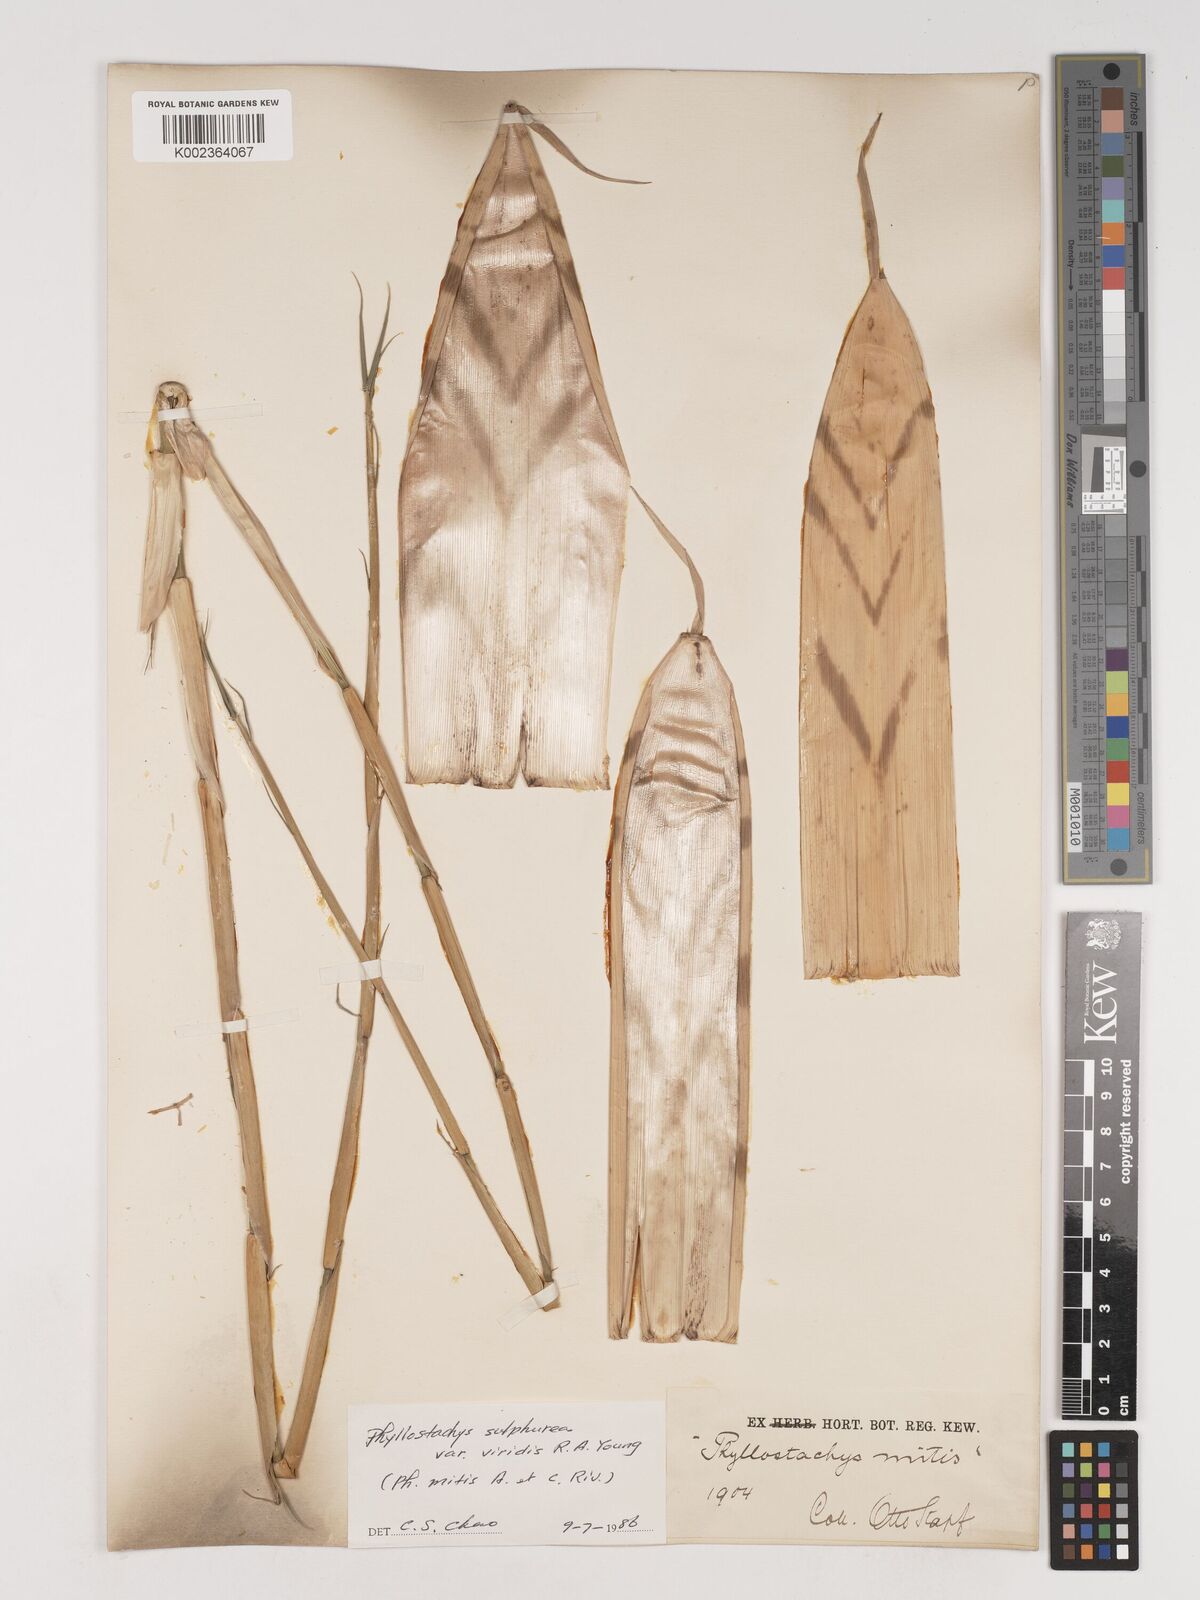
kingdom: Plantae
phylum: Tracheophyta
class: Liliopsida
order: Poales
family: Poaceae
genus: Phyllostachys
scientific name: Phyllostachys sulphurea
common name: Sulphur bamboo
